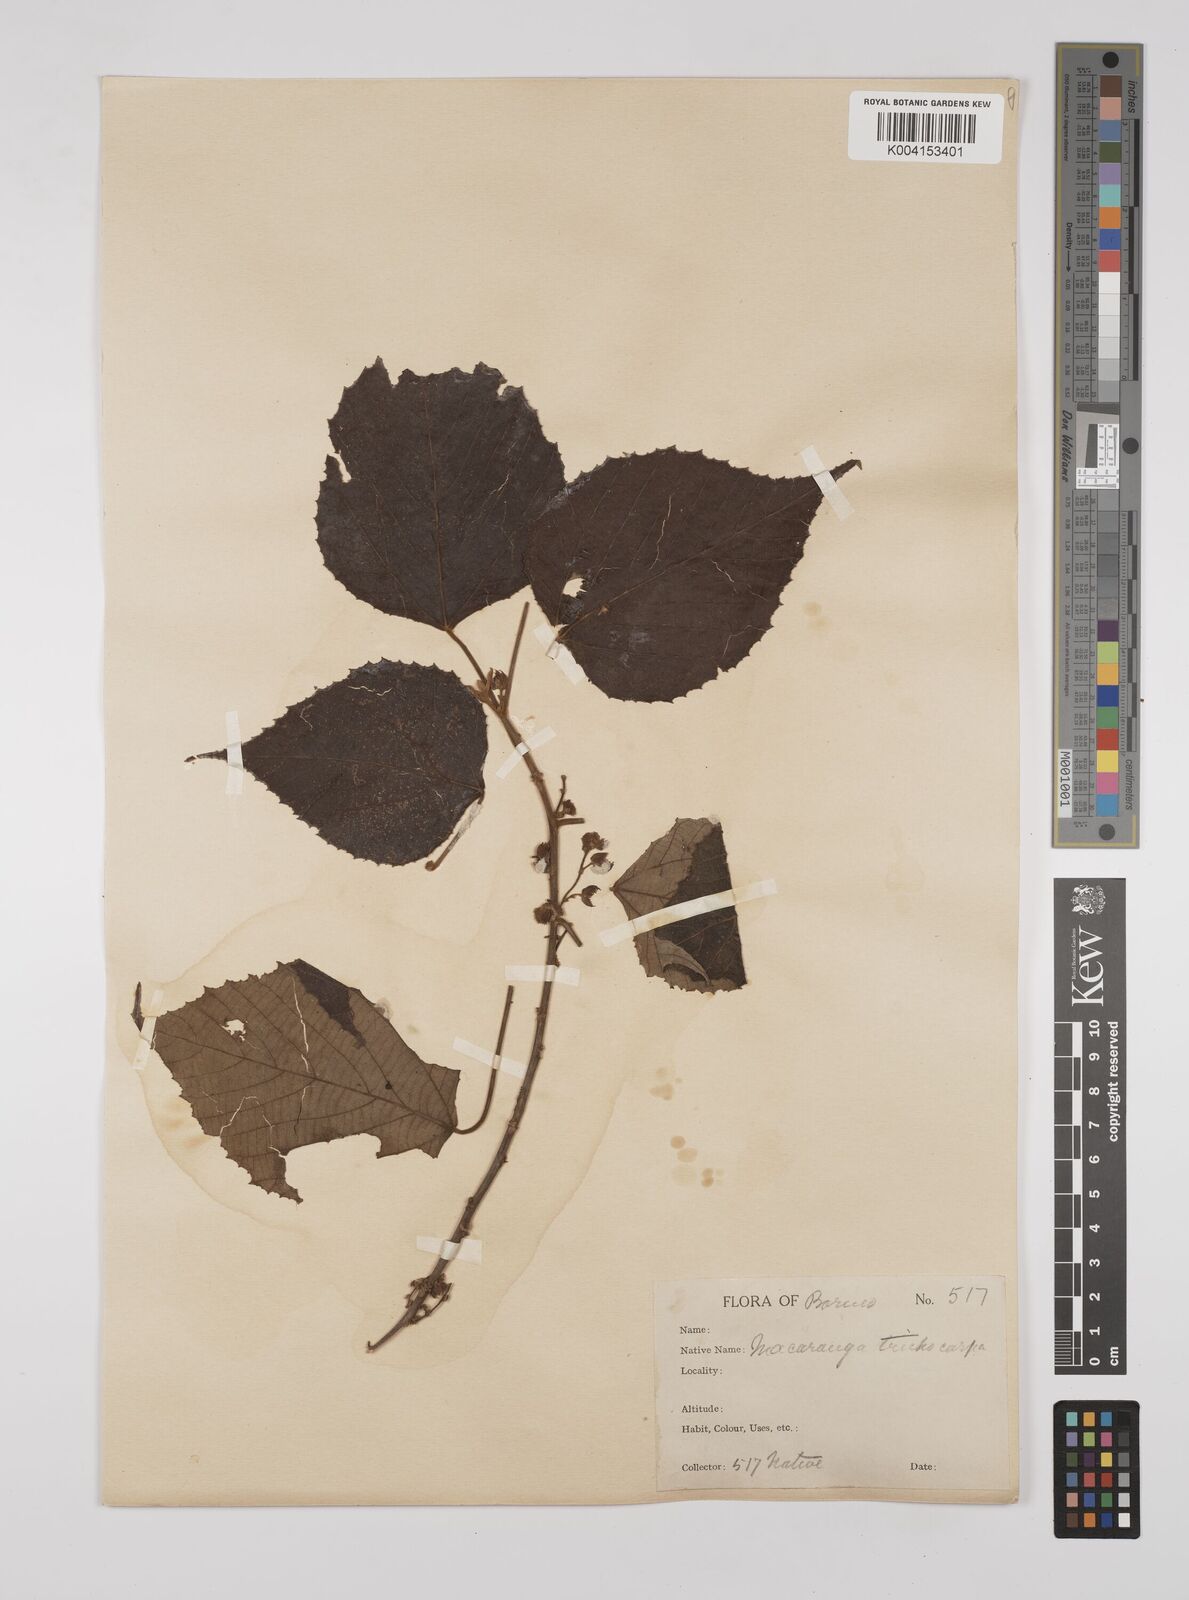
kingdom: Plantae
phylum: Tracheophyta
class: Magnoliopsida
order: Malpighiales
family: Euphorbiaceae
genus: Macaranga
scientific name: Macaranga trichocarpa
